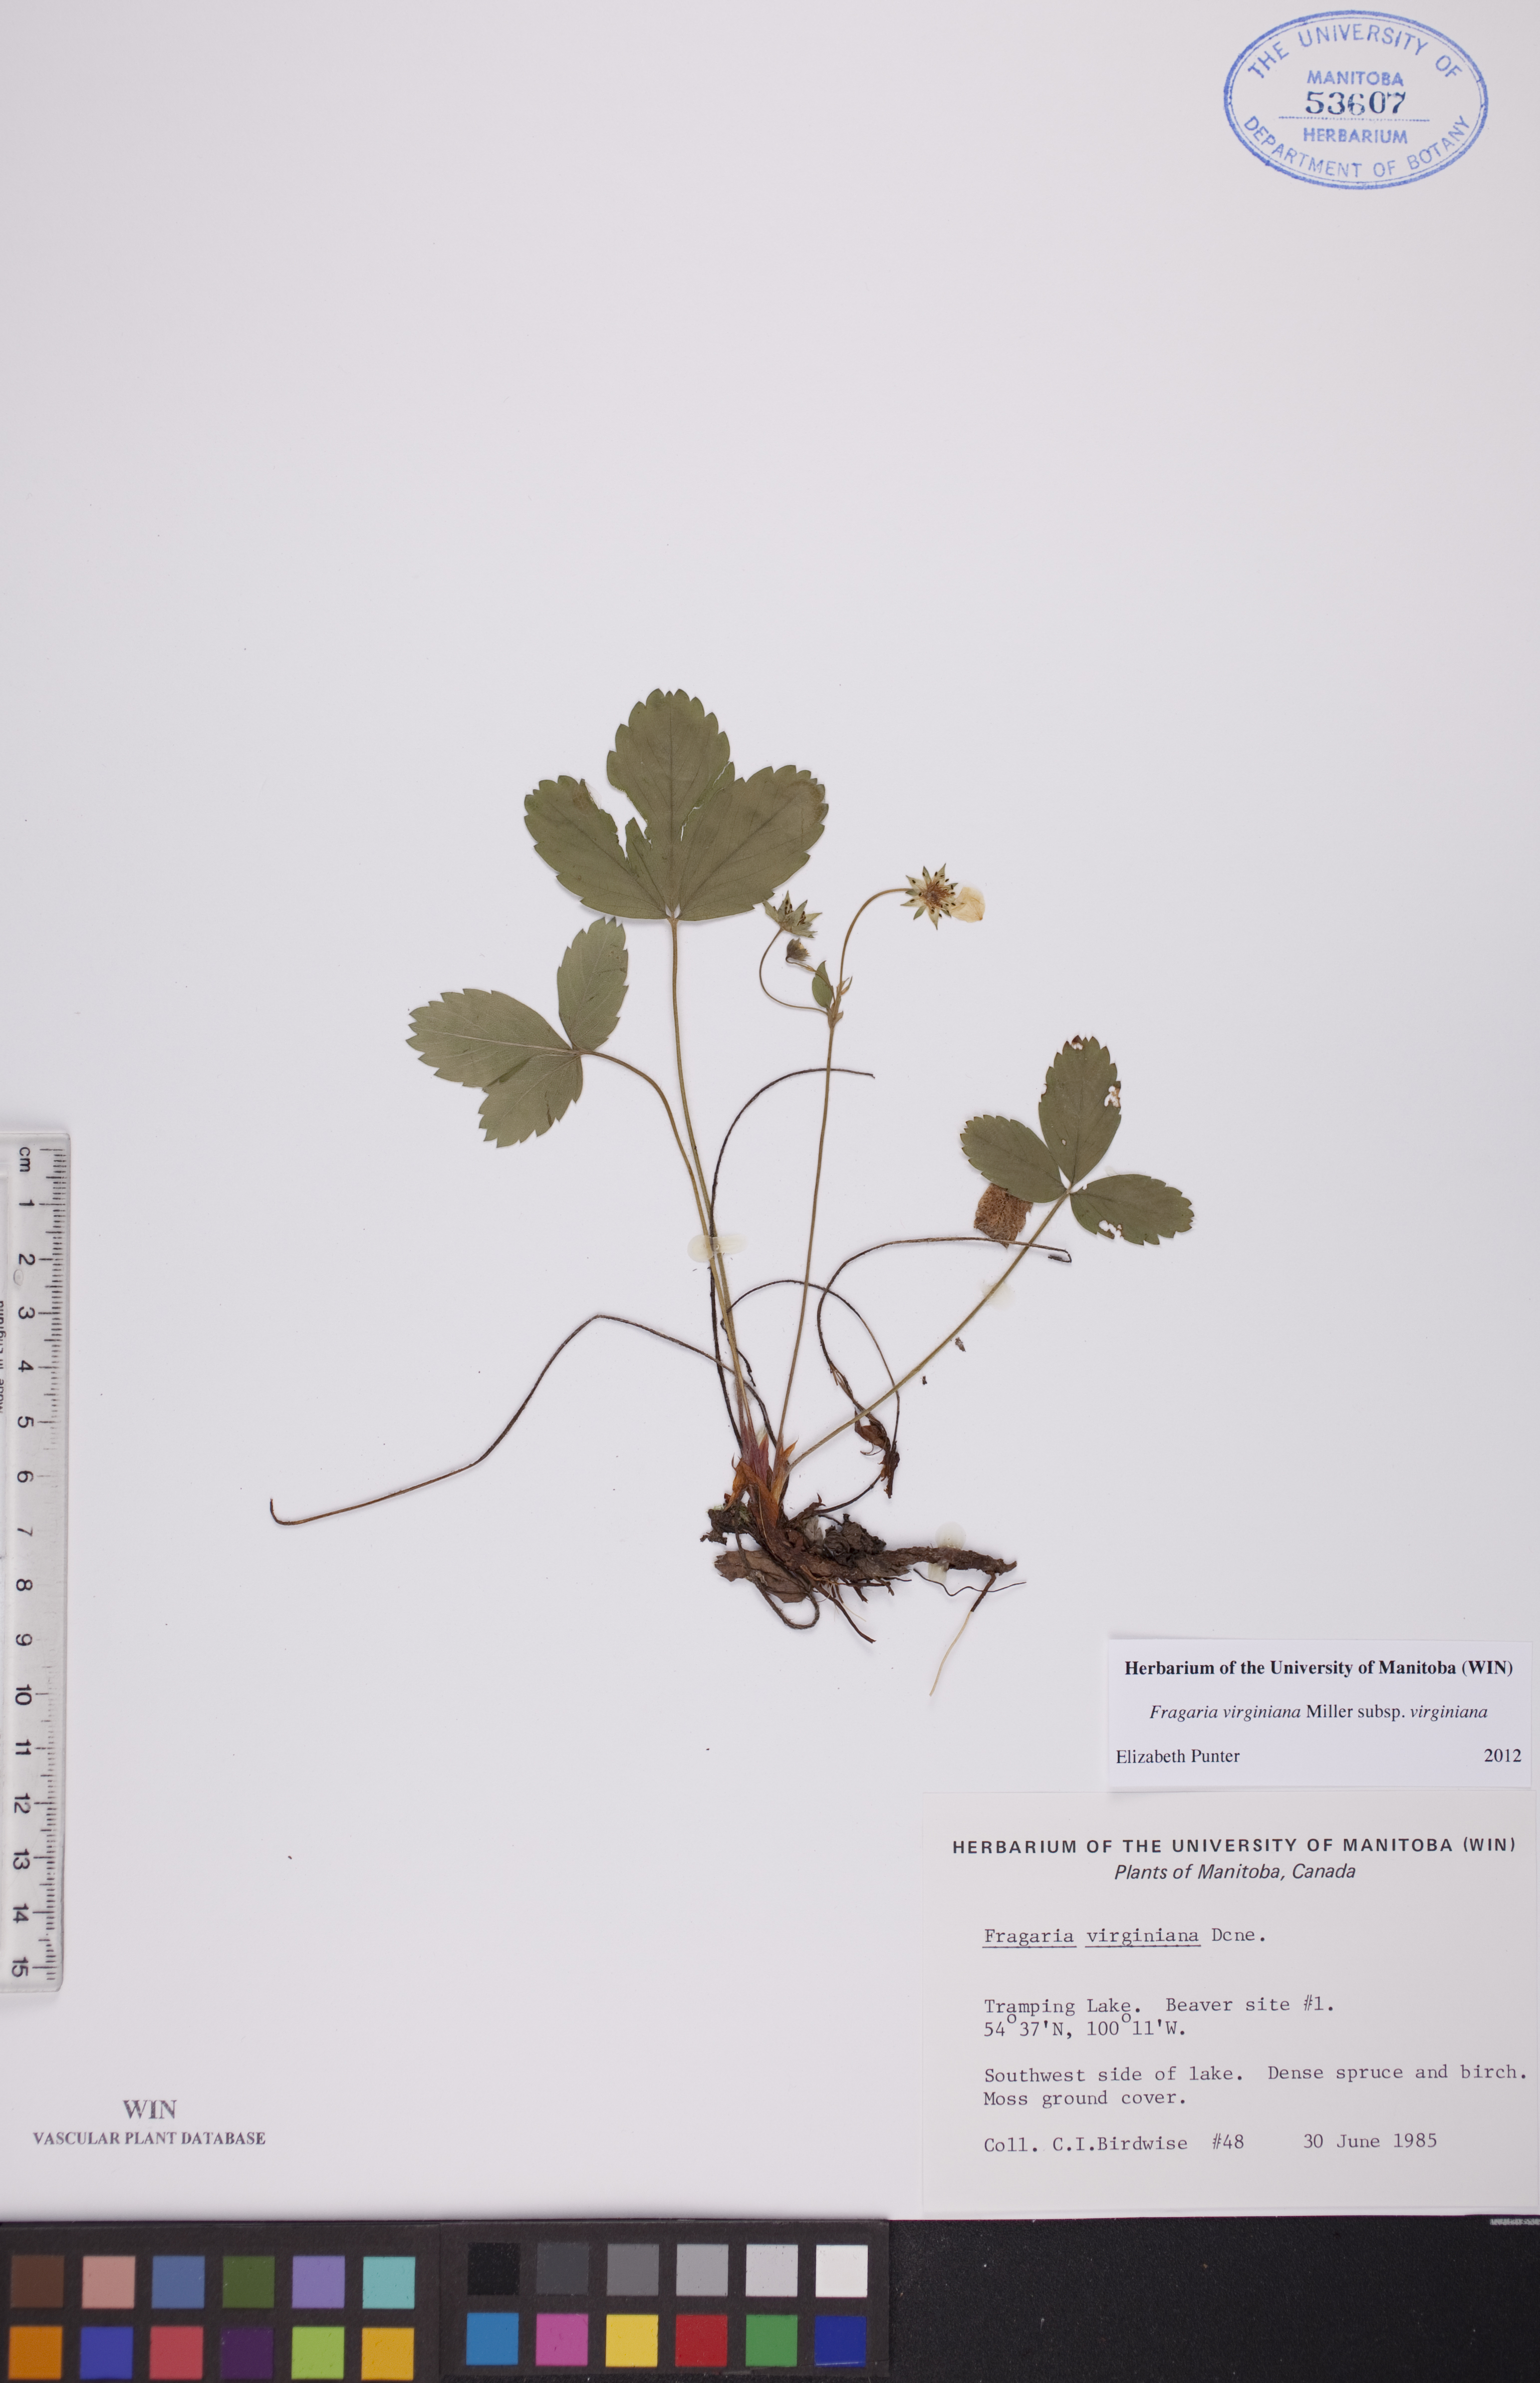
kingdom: Plantae
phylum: Tracheophyta
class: Magnoliopsida
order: Rosales
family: Rosaceae
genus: Fragaria
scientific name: Fragaria virginiana
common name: Thickleaved wild strawberry
